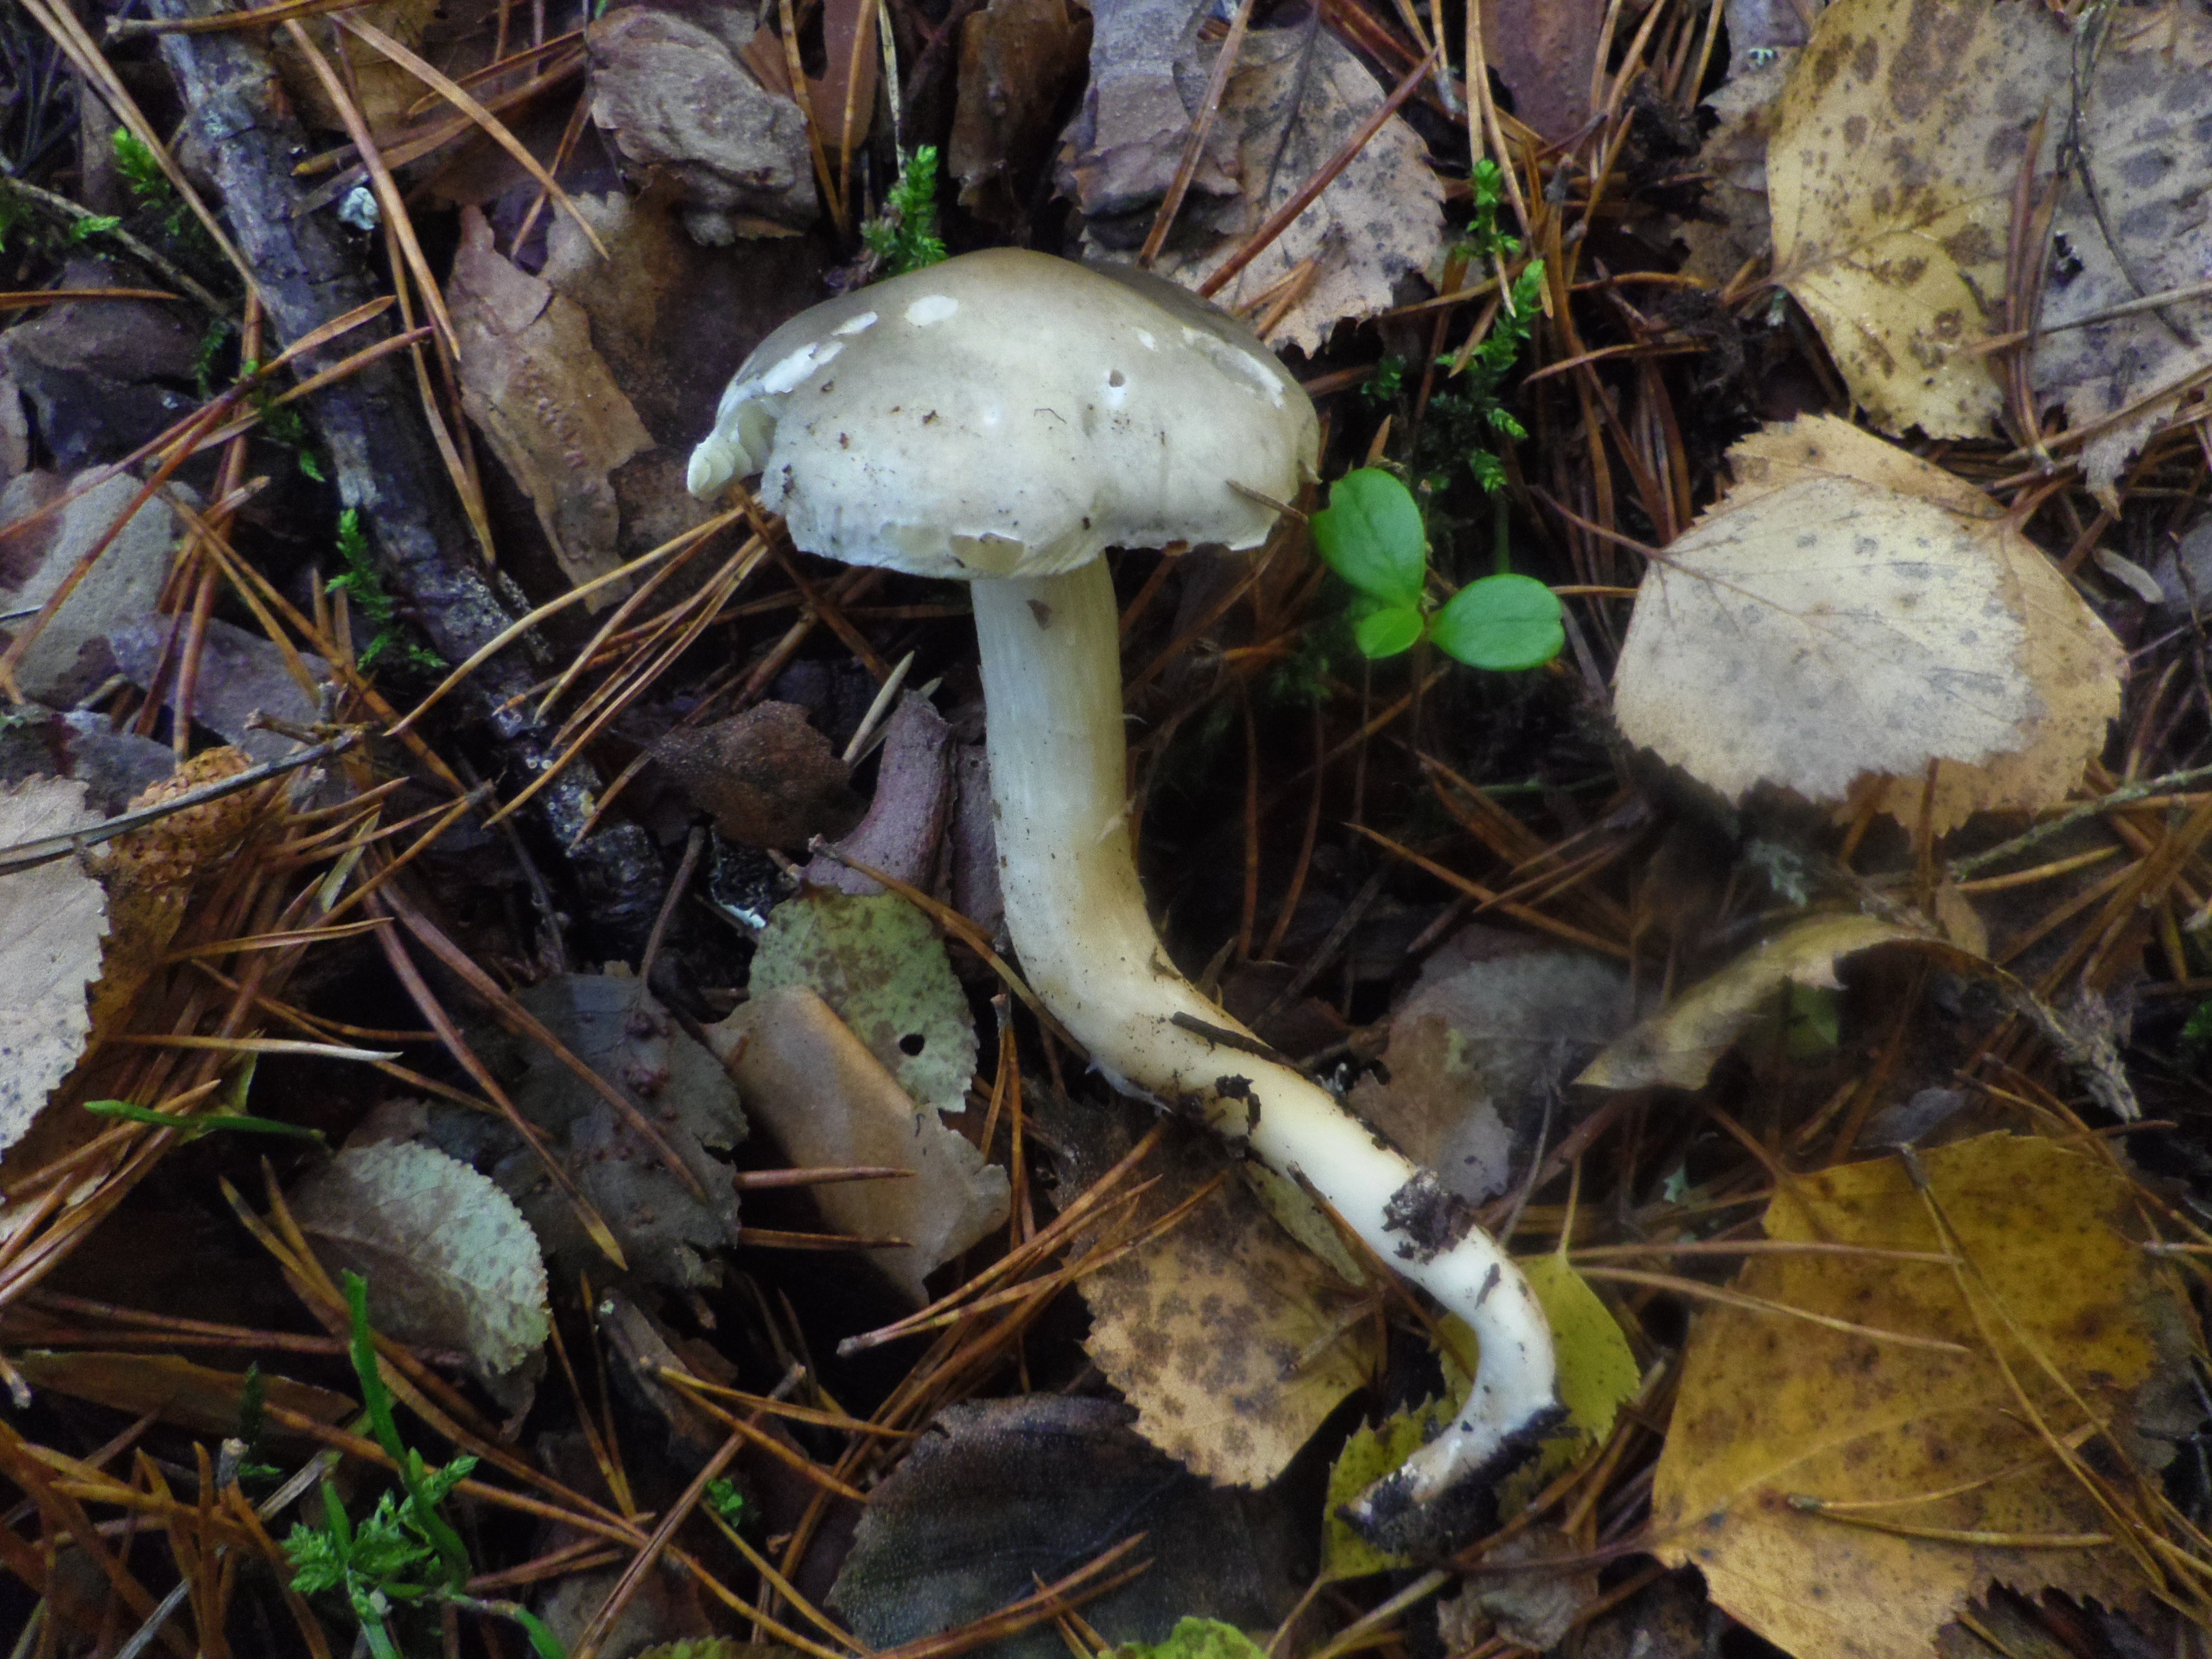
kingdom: Fungi
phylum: Basidiomycota
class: Agaricomycetes
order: Agaricales
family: Tricholomataceae
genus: Tricholoma
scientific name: Tricholoma saponaceum
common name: Soapy trich
